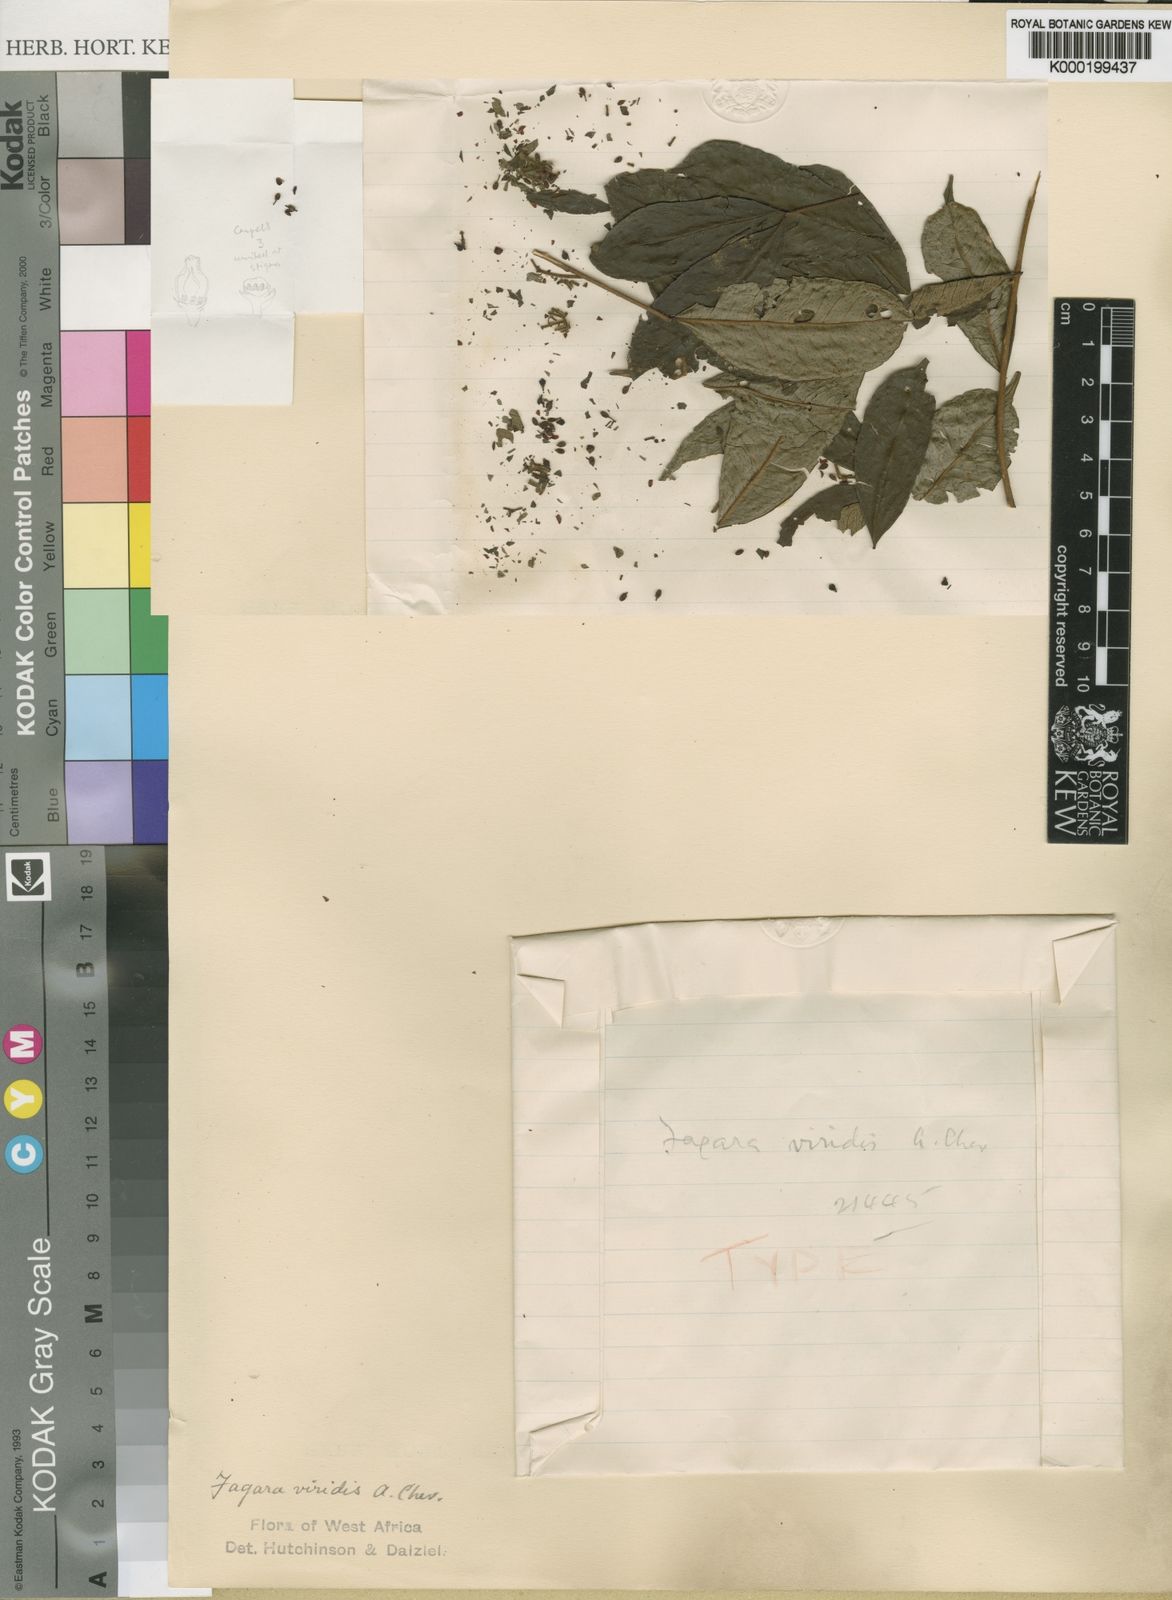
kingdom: Plantae
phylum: Tracheophyta
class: Magnoliopsida
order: Sapindales
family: Rutaceae
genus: Zanthoxylum
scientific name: Zanthoxylum viride
